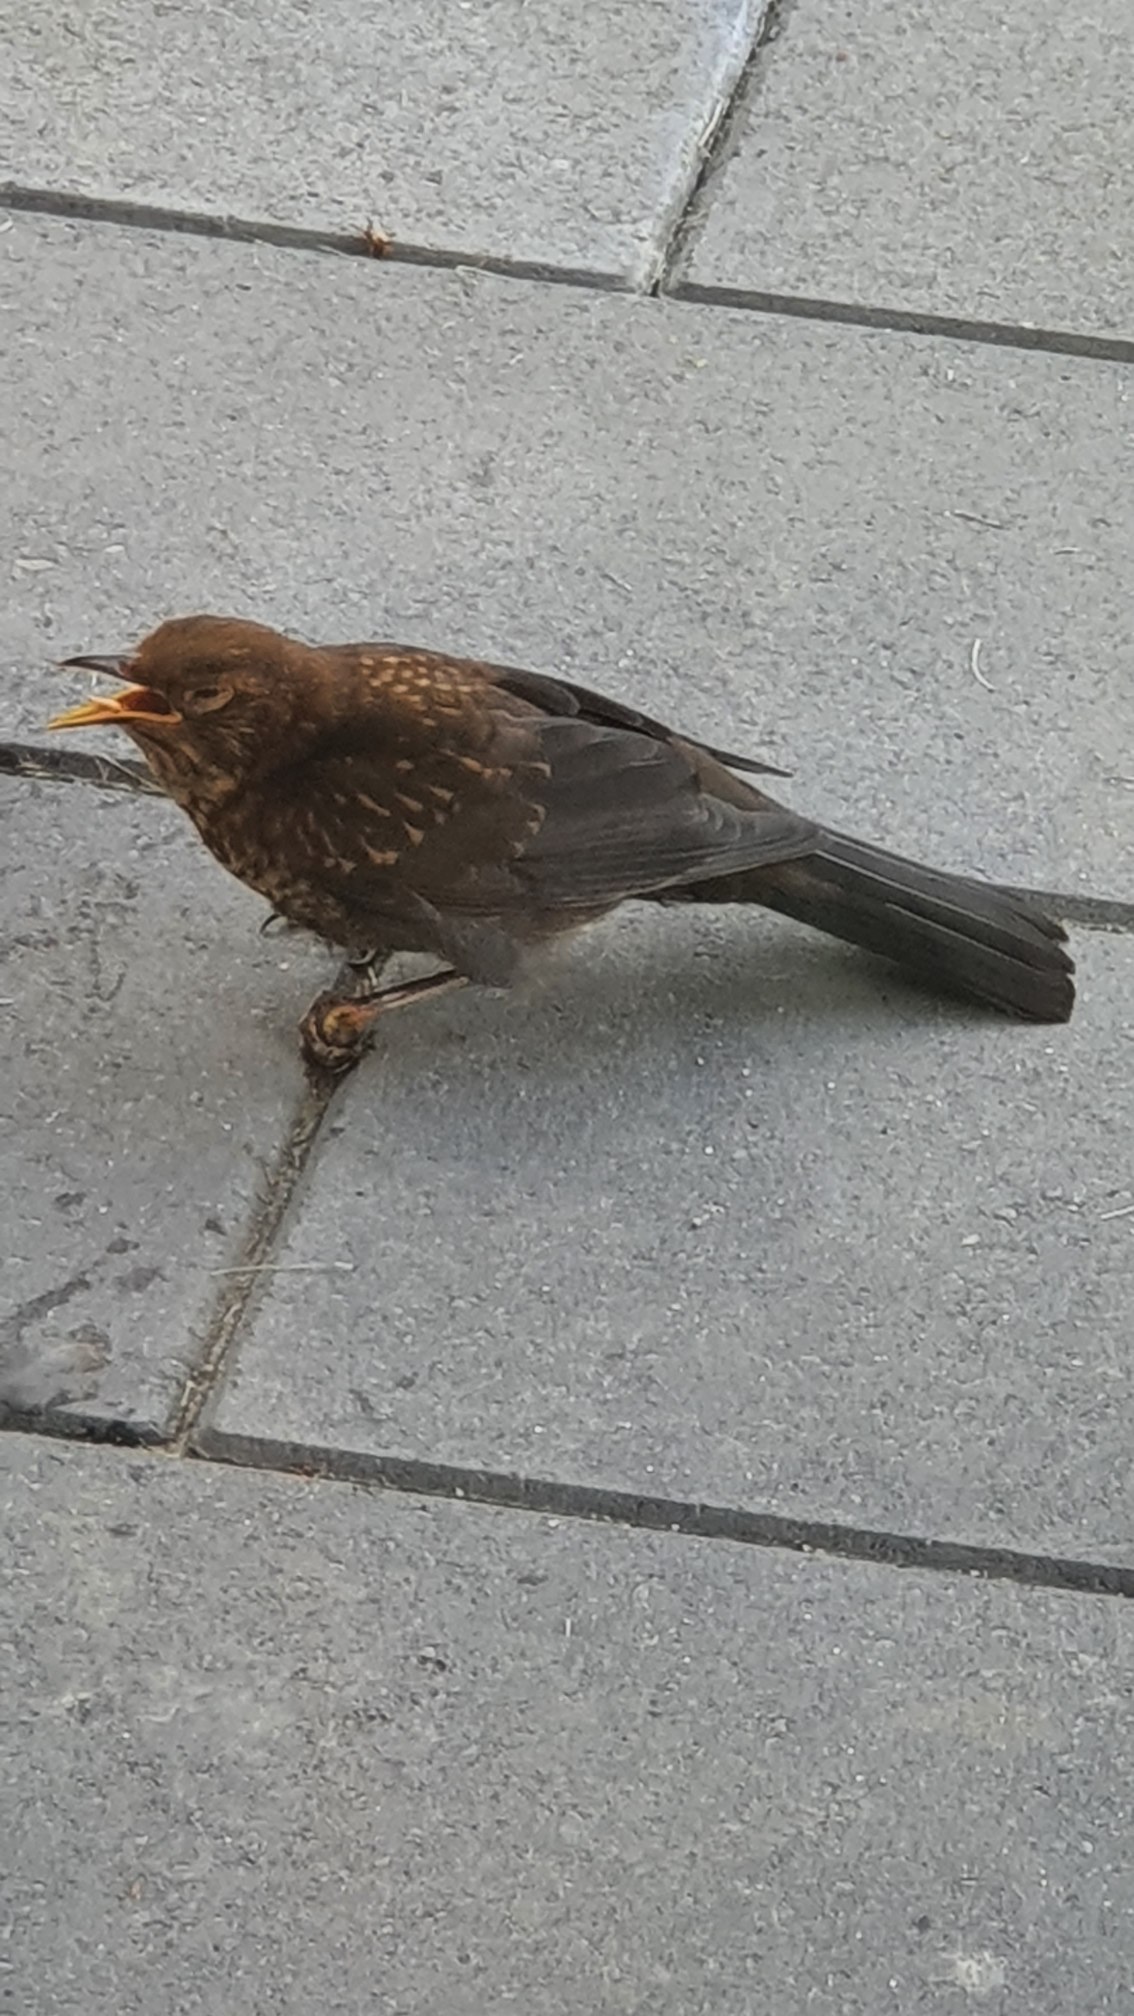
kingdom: Animalia
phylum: Chordata
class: Aves
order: Passeriformes
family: Turdidae
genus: Turdus
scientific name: Turdus merula
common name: Solsort
